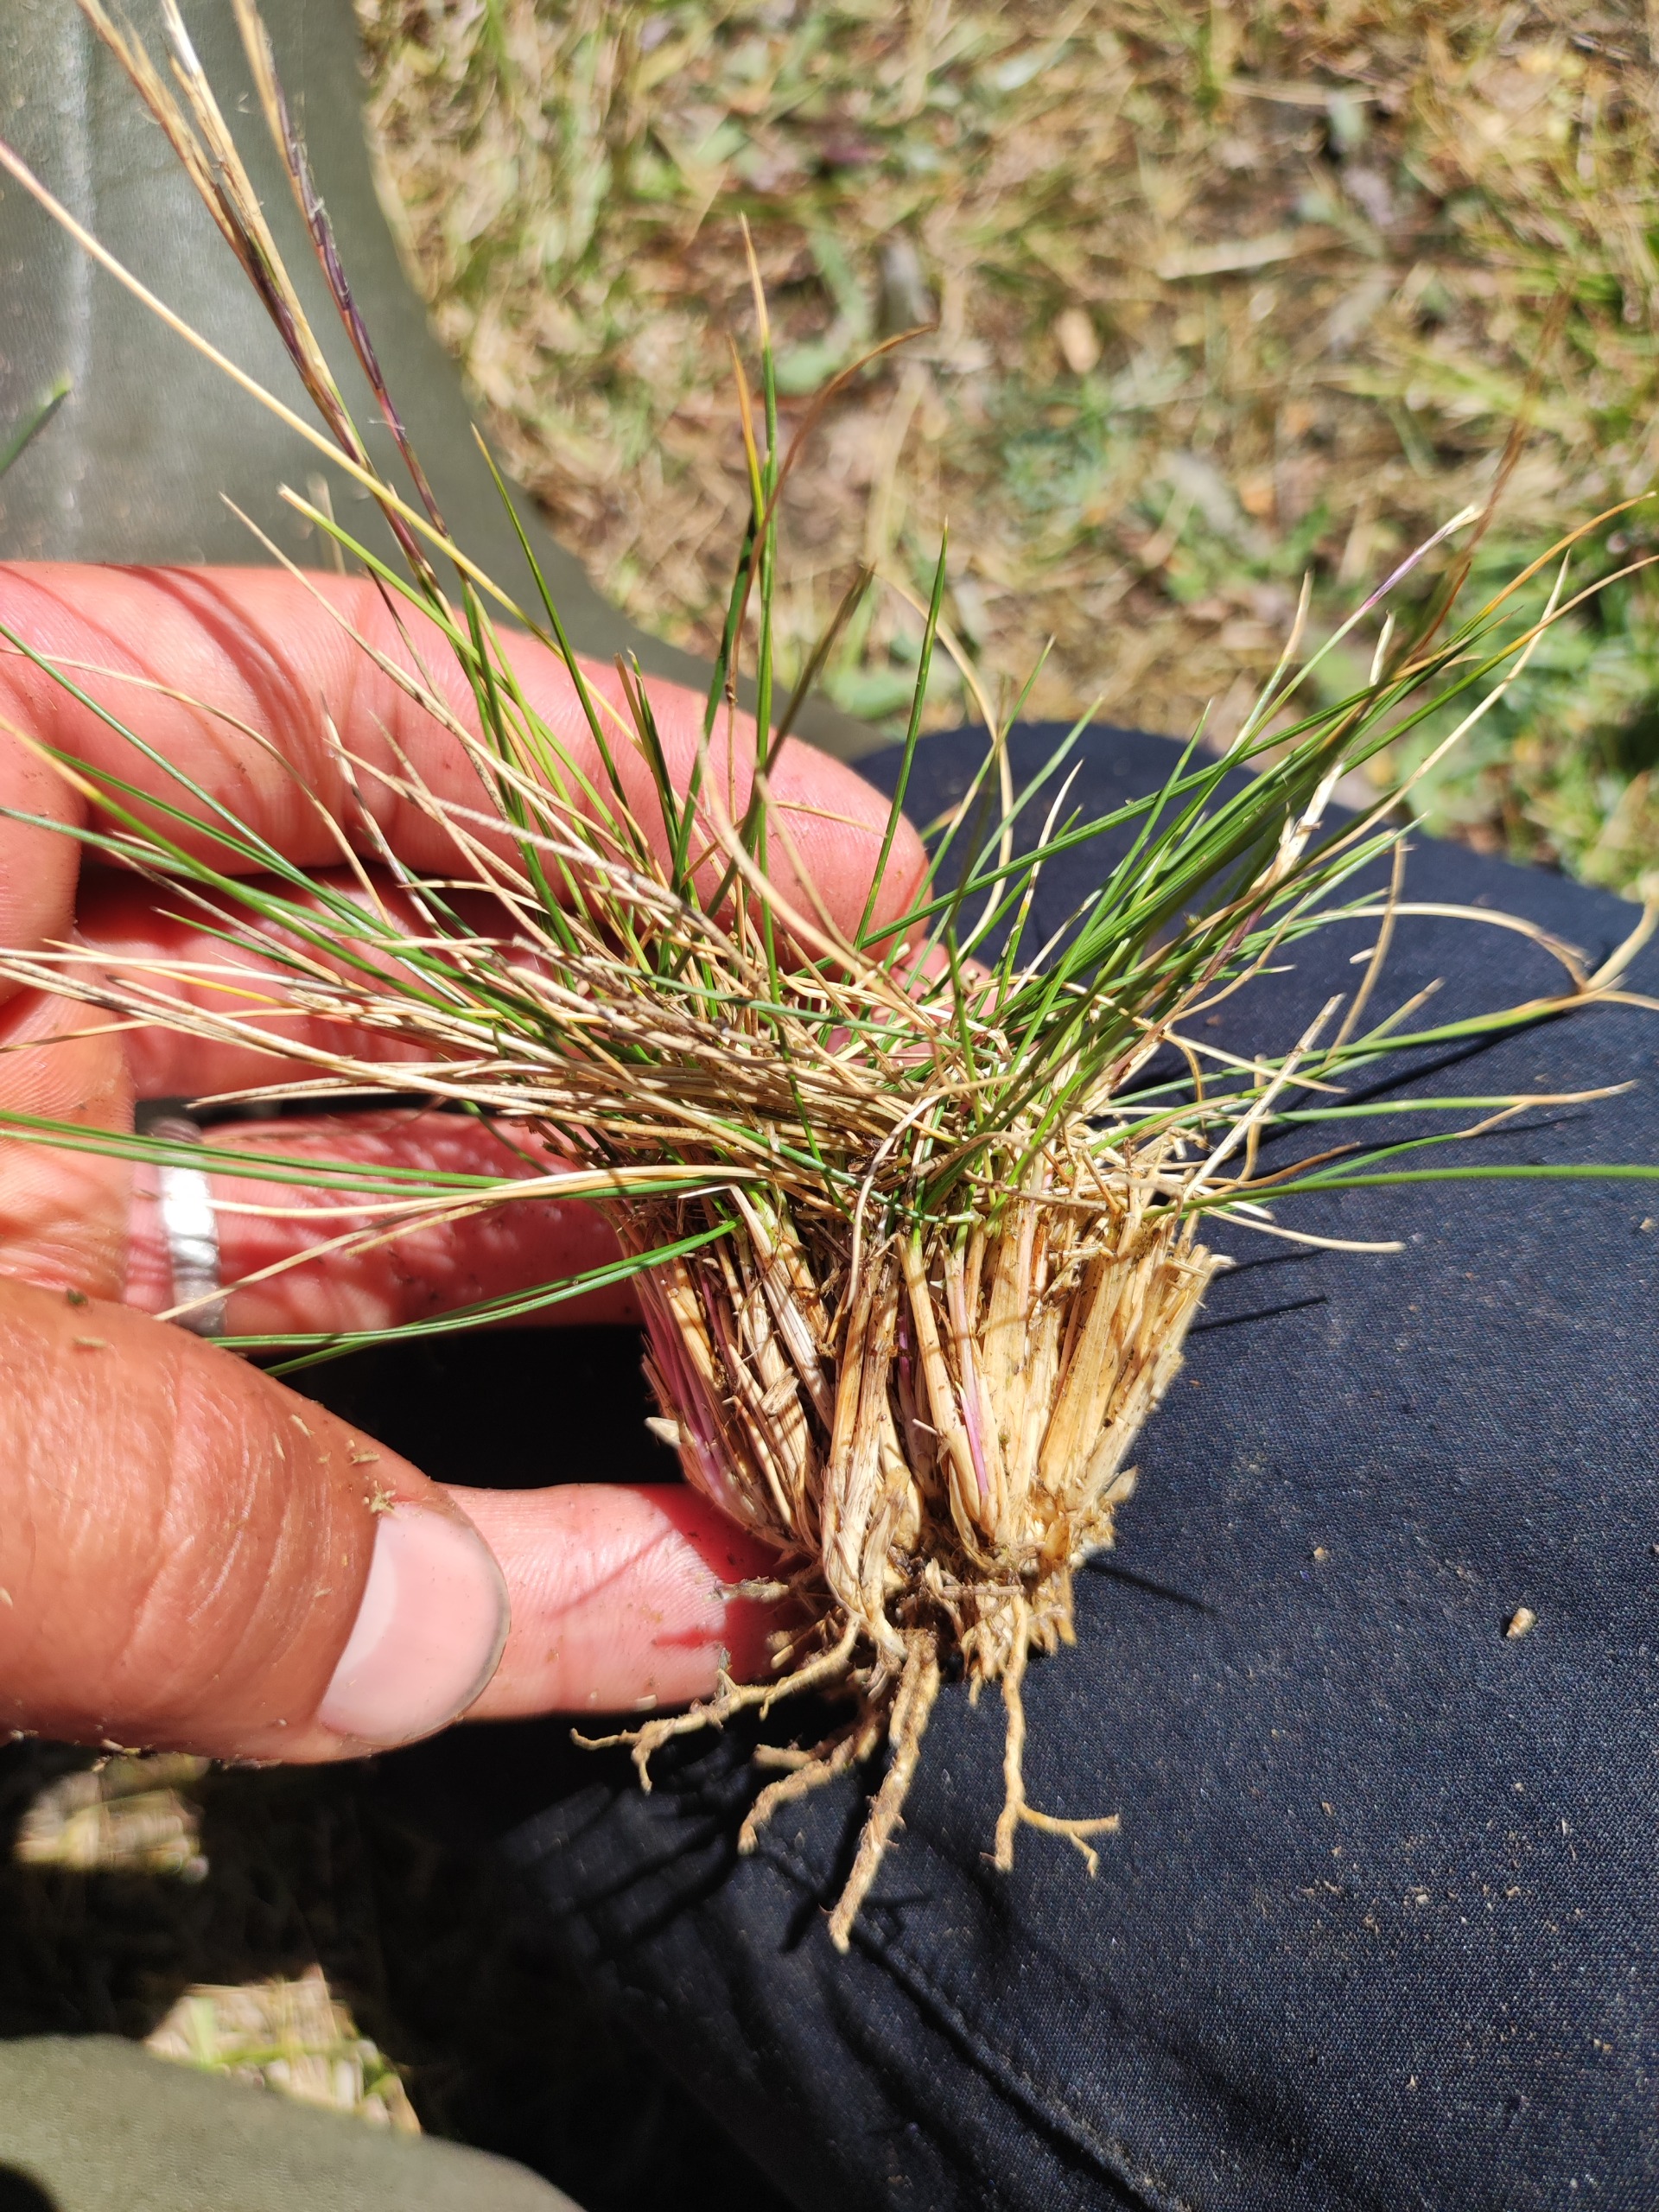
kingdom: Plantae
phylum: Tracheophyta
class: Liliopsida
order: Poales
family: Poaceae
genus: Nardus
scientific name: Nardus stricta
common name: Katteskæg
